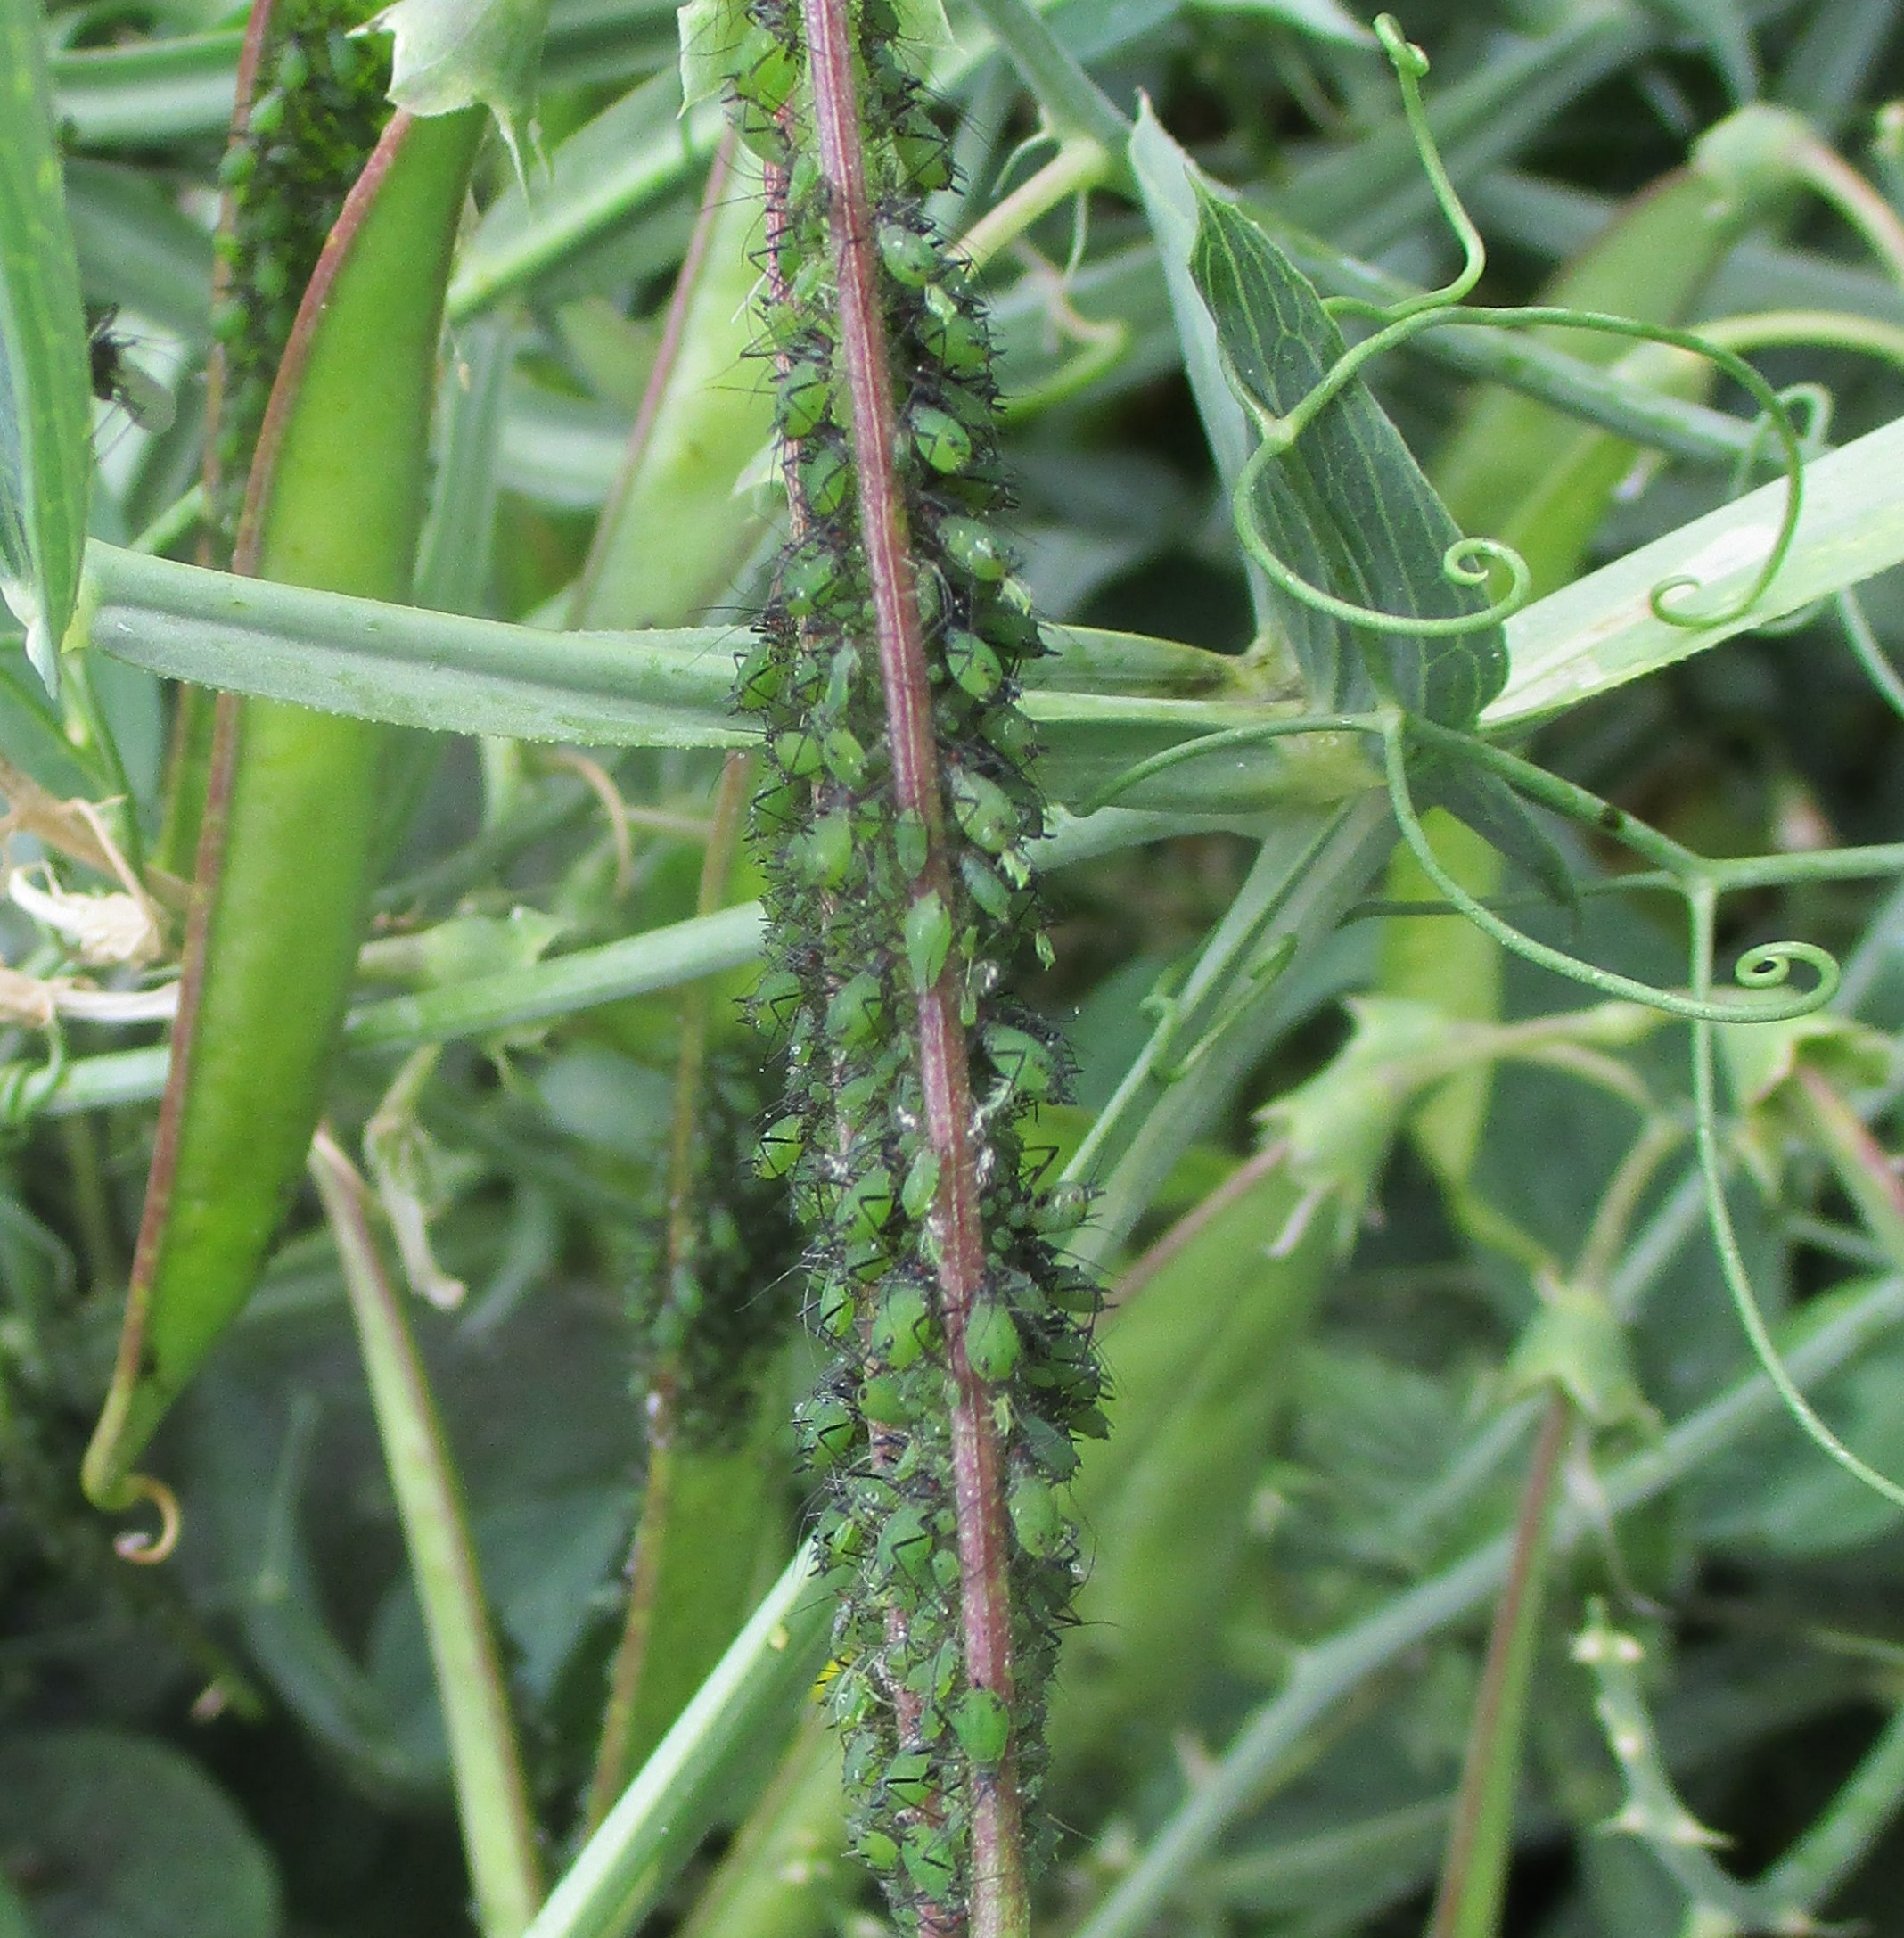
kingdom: Animalia
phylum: Arthropoda
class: Insecta
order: Hemiptera
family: Aphididae
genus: Megoura
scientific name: Megoura viciae
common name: Vikkebladlus
